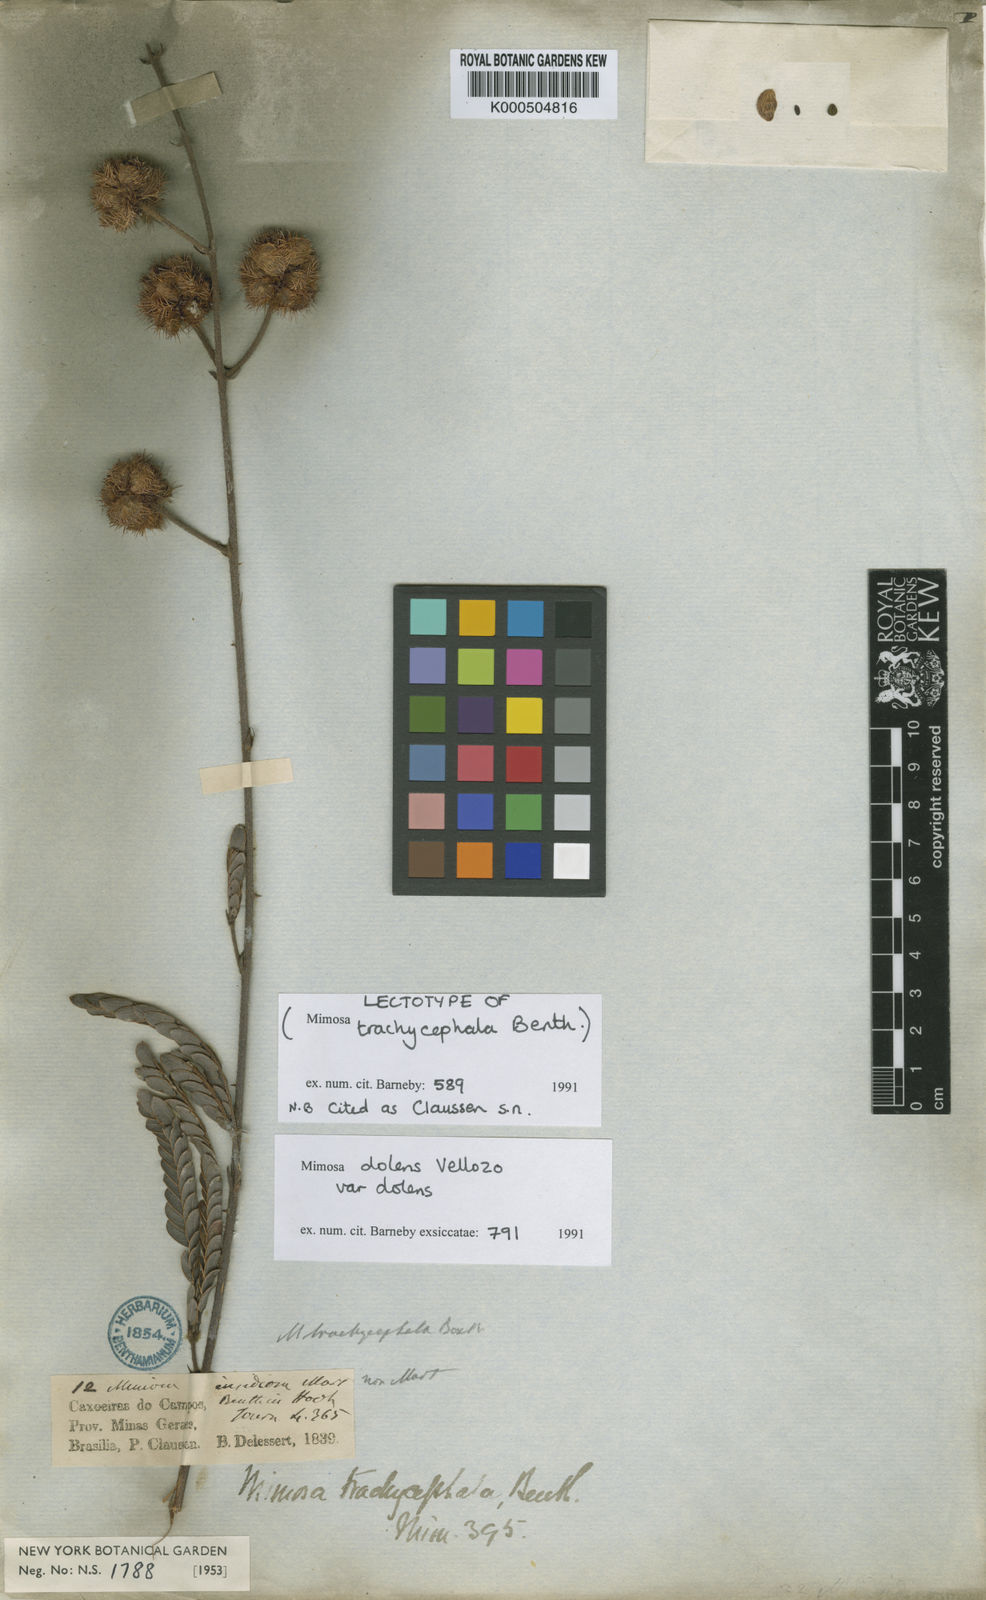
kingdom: Plantae
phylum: Tracheophyta
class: Magnoliopsida
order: Fabales
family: Fabaceae
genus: Mimosa
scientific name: Mimosa dolens
